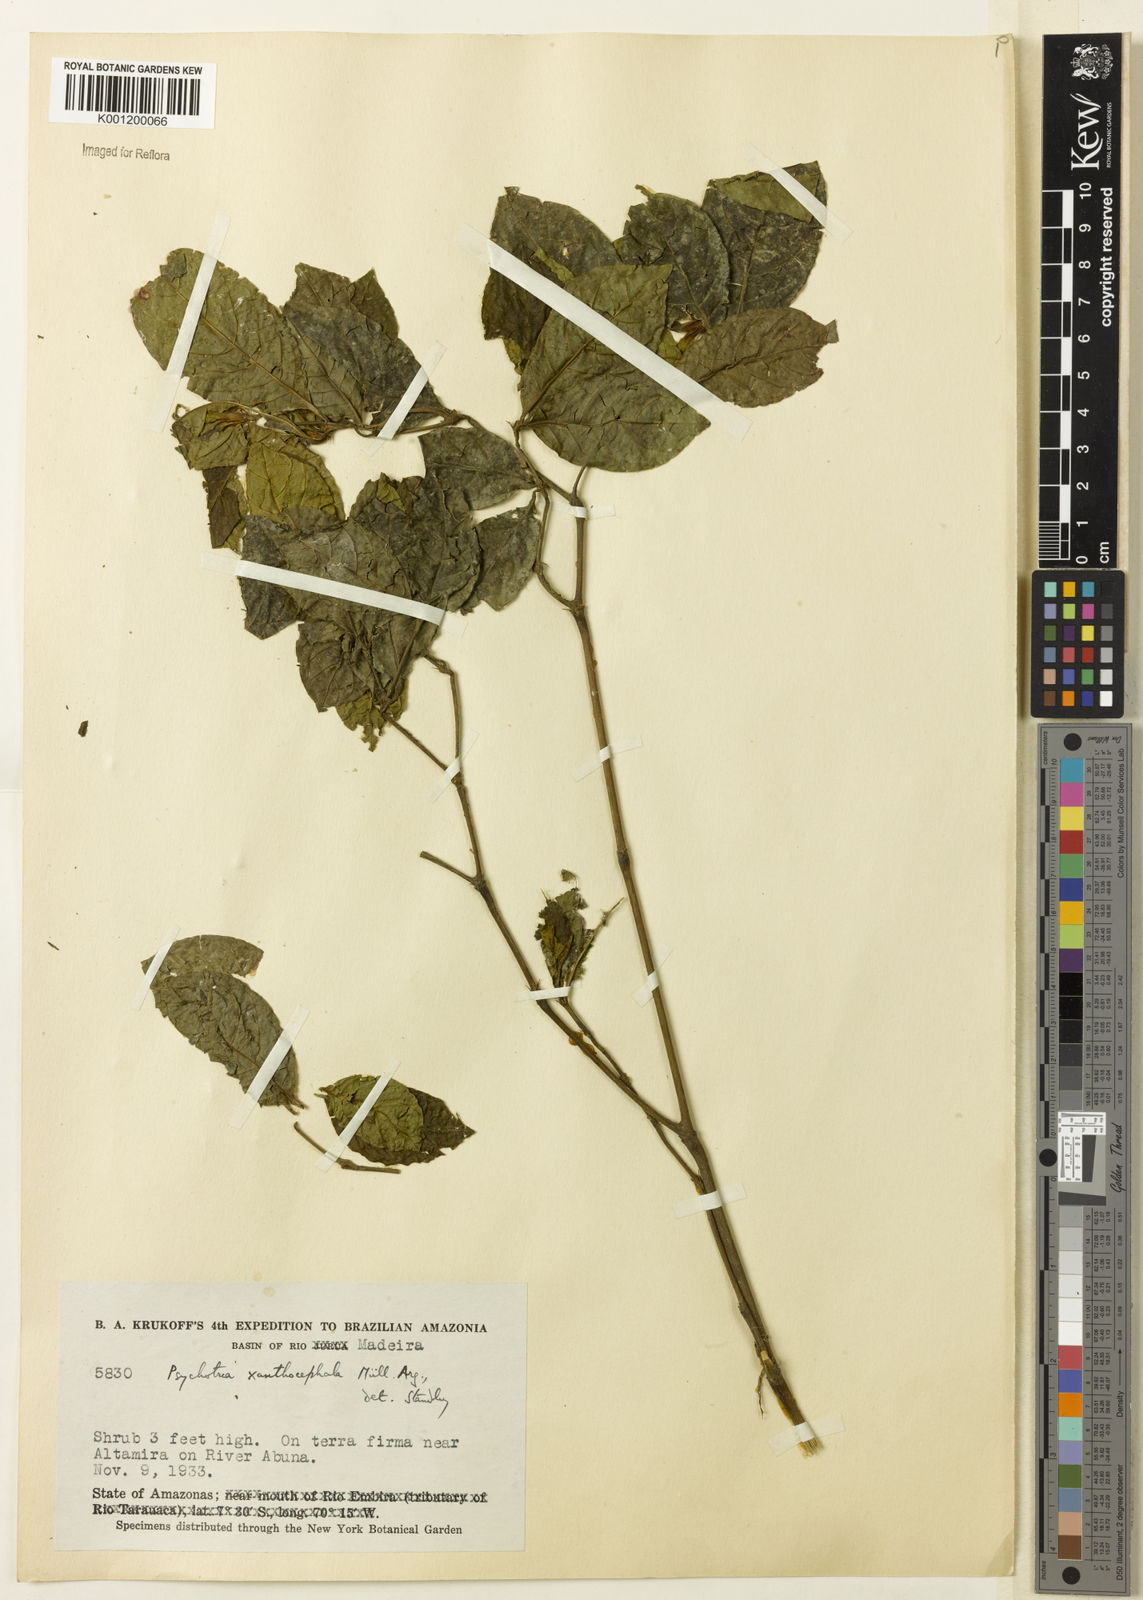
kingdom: Plantae
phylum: Tracheophyta
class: Magnoliopsida
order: Gentianales
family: Rubiaceae
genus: Psychotria
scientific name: Psychotria
